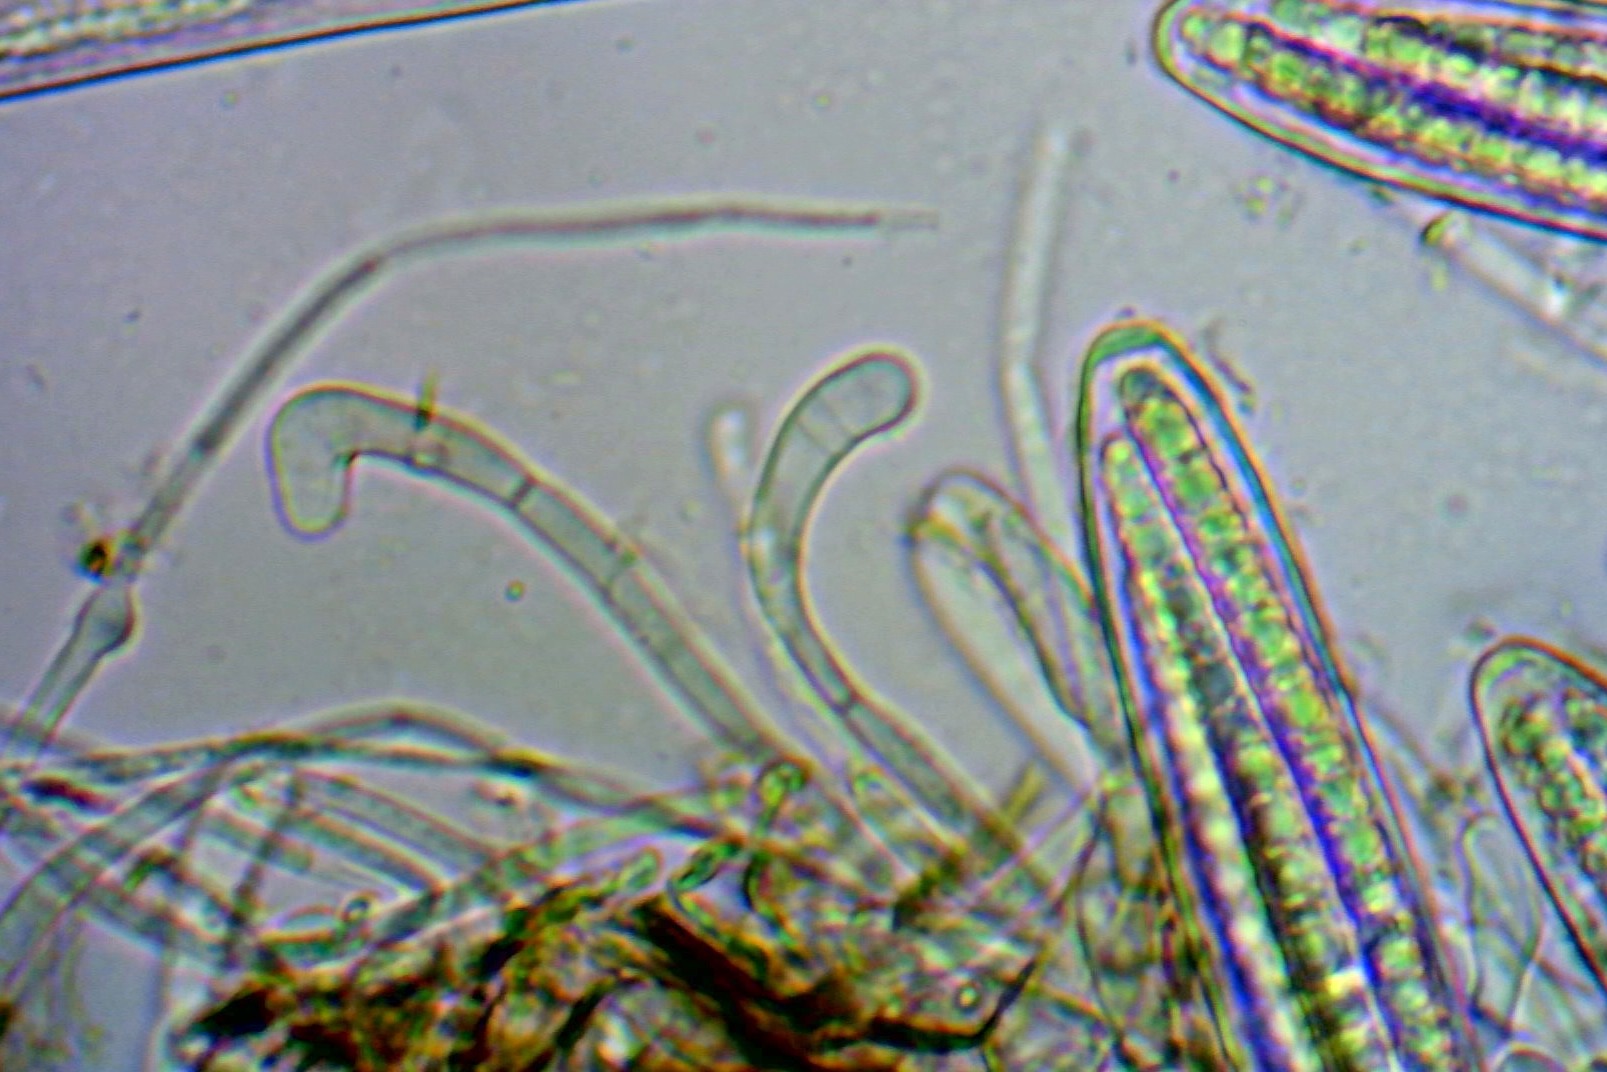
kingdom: Fungi
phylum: Ascomycota
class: Geoglossomycetes
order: Geoglossales
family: Geoglossaceae
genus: Geoglossum
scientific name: Geoglossum fallax
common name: småskællet jordtunge
